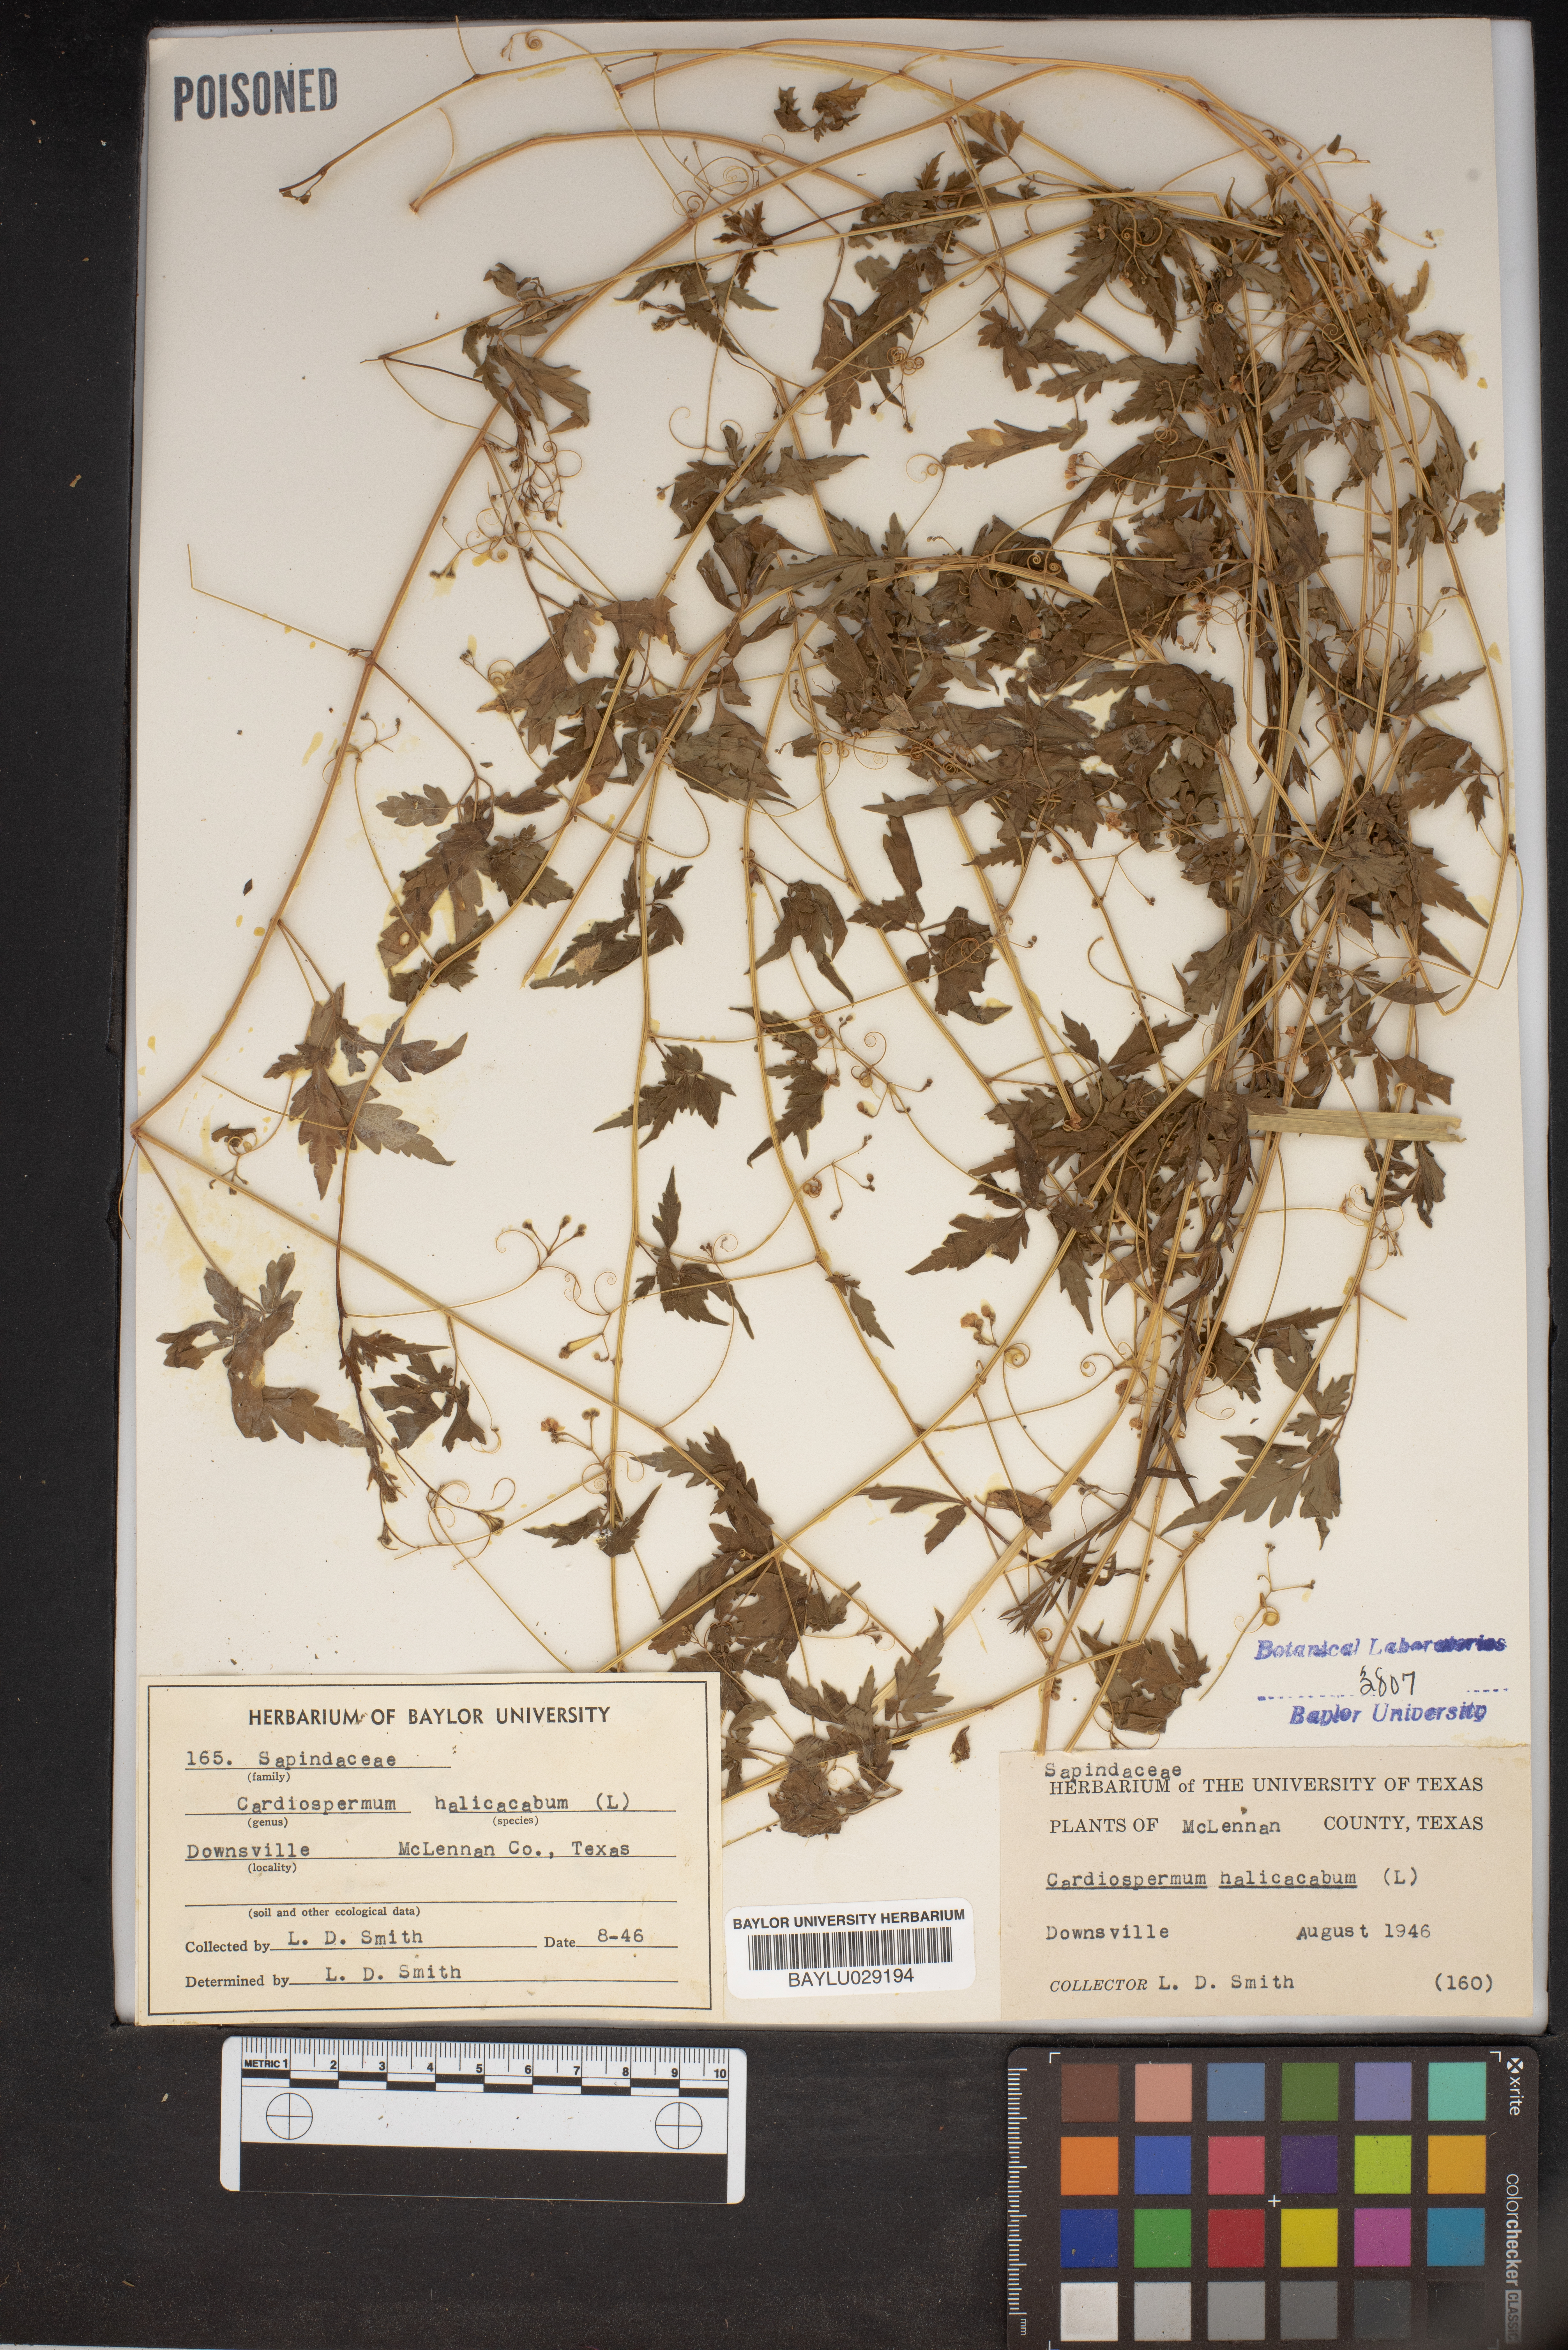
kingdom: Plantae
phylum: Tracheophyta
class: Magnoliopsida
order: Sapindales
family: Sapindaceae
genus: Cardiospermum
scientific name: Cardiospermum halicacabum
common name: Balloon vine
